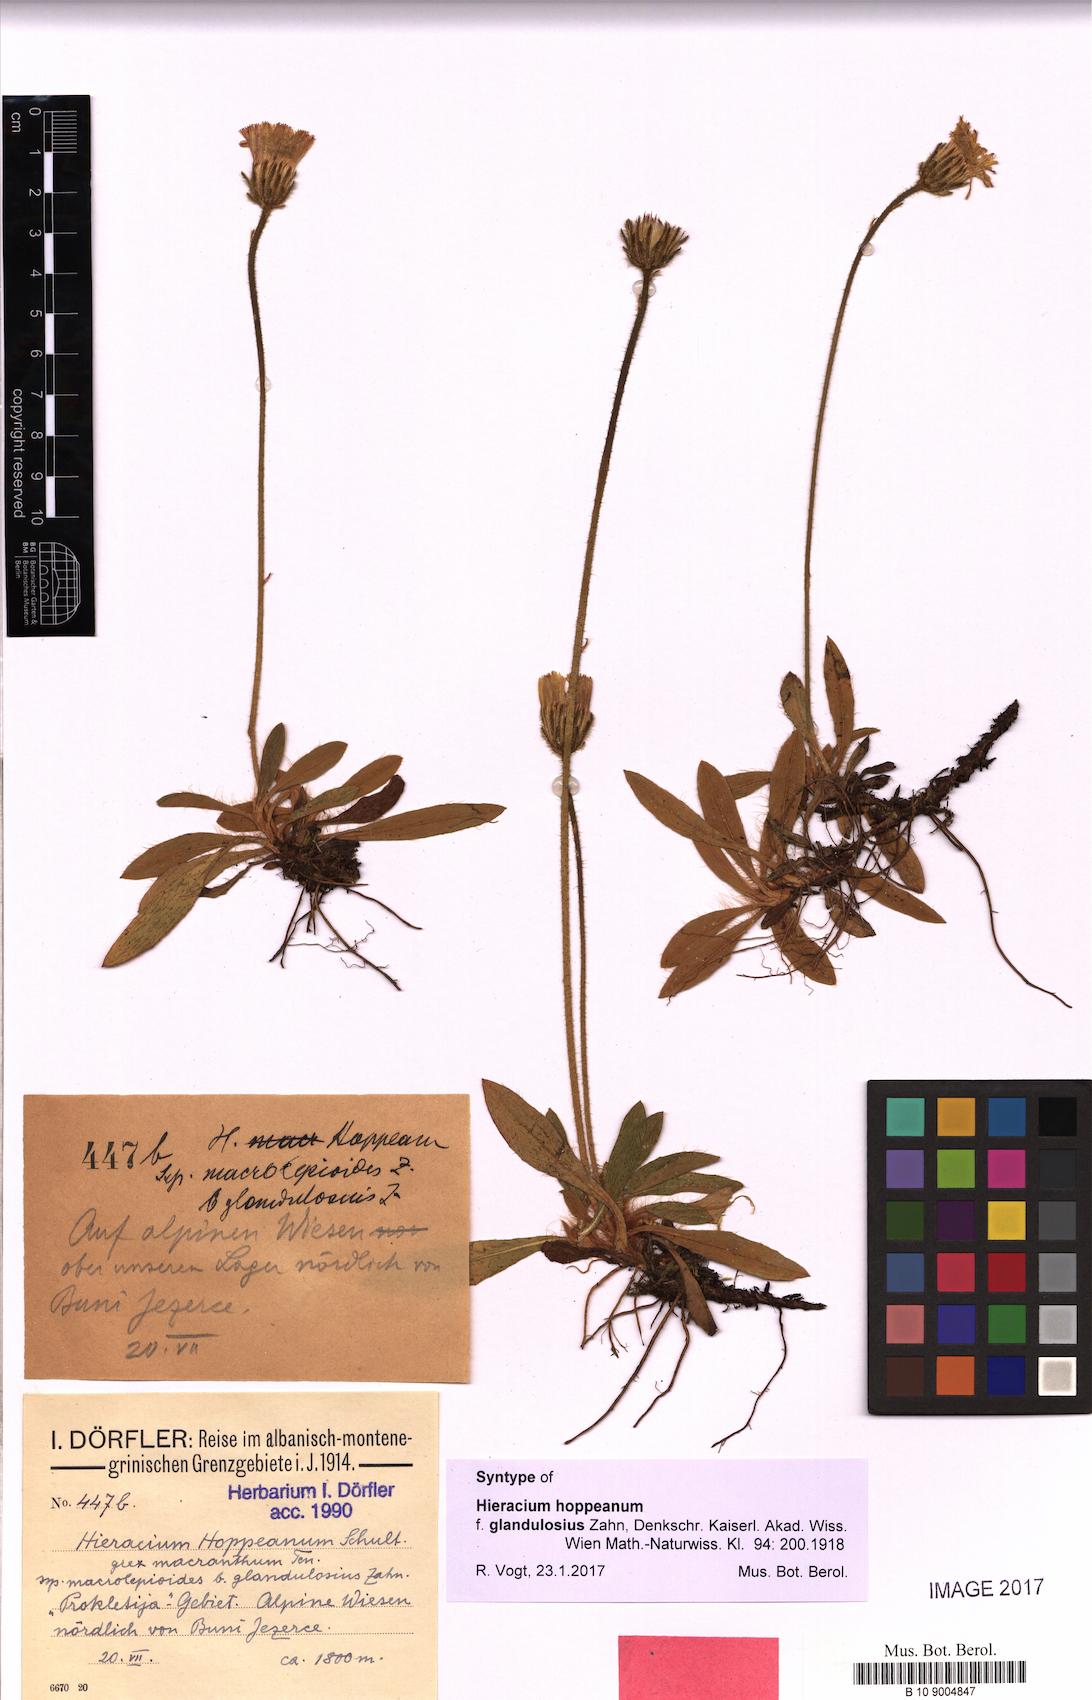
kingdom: Plantae
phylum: Tracheophyta
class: Magnoliopsida
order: Asterales
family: Asteraceae
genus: Pilosella
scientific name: Pilosella leucopsilon
